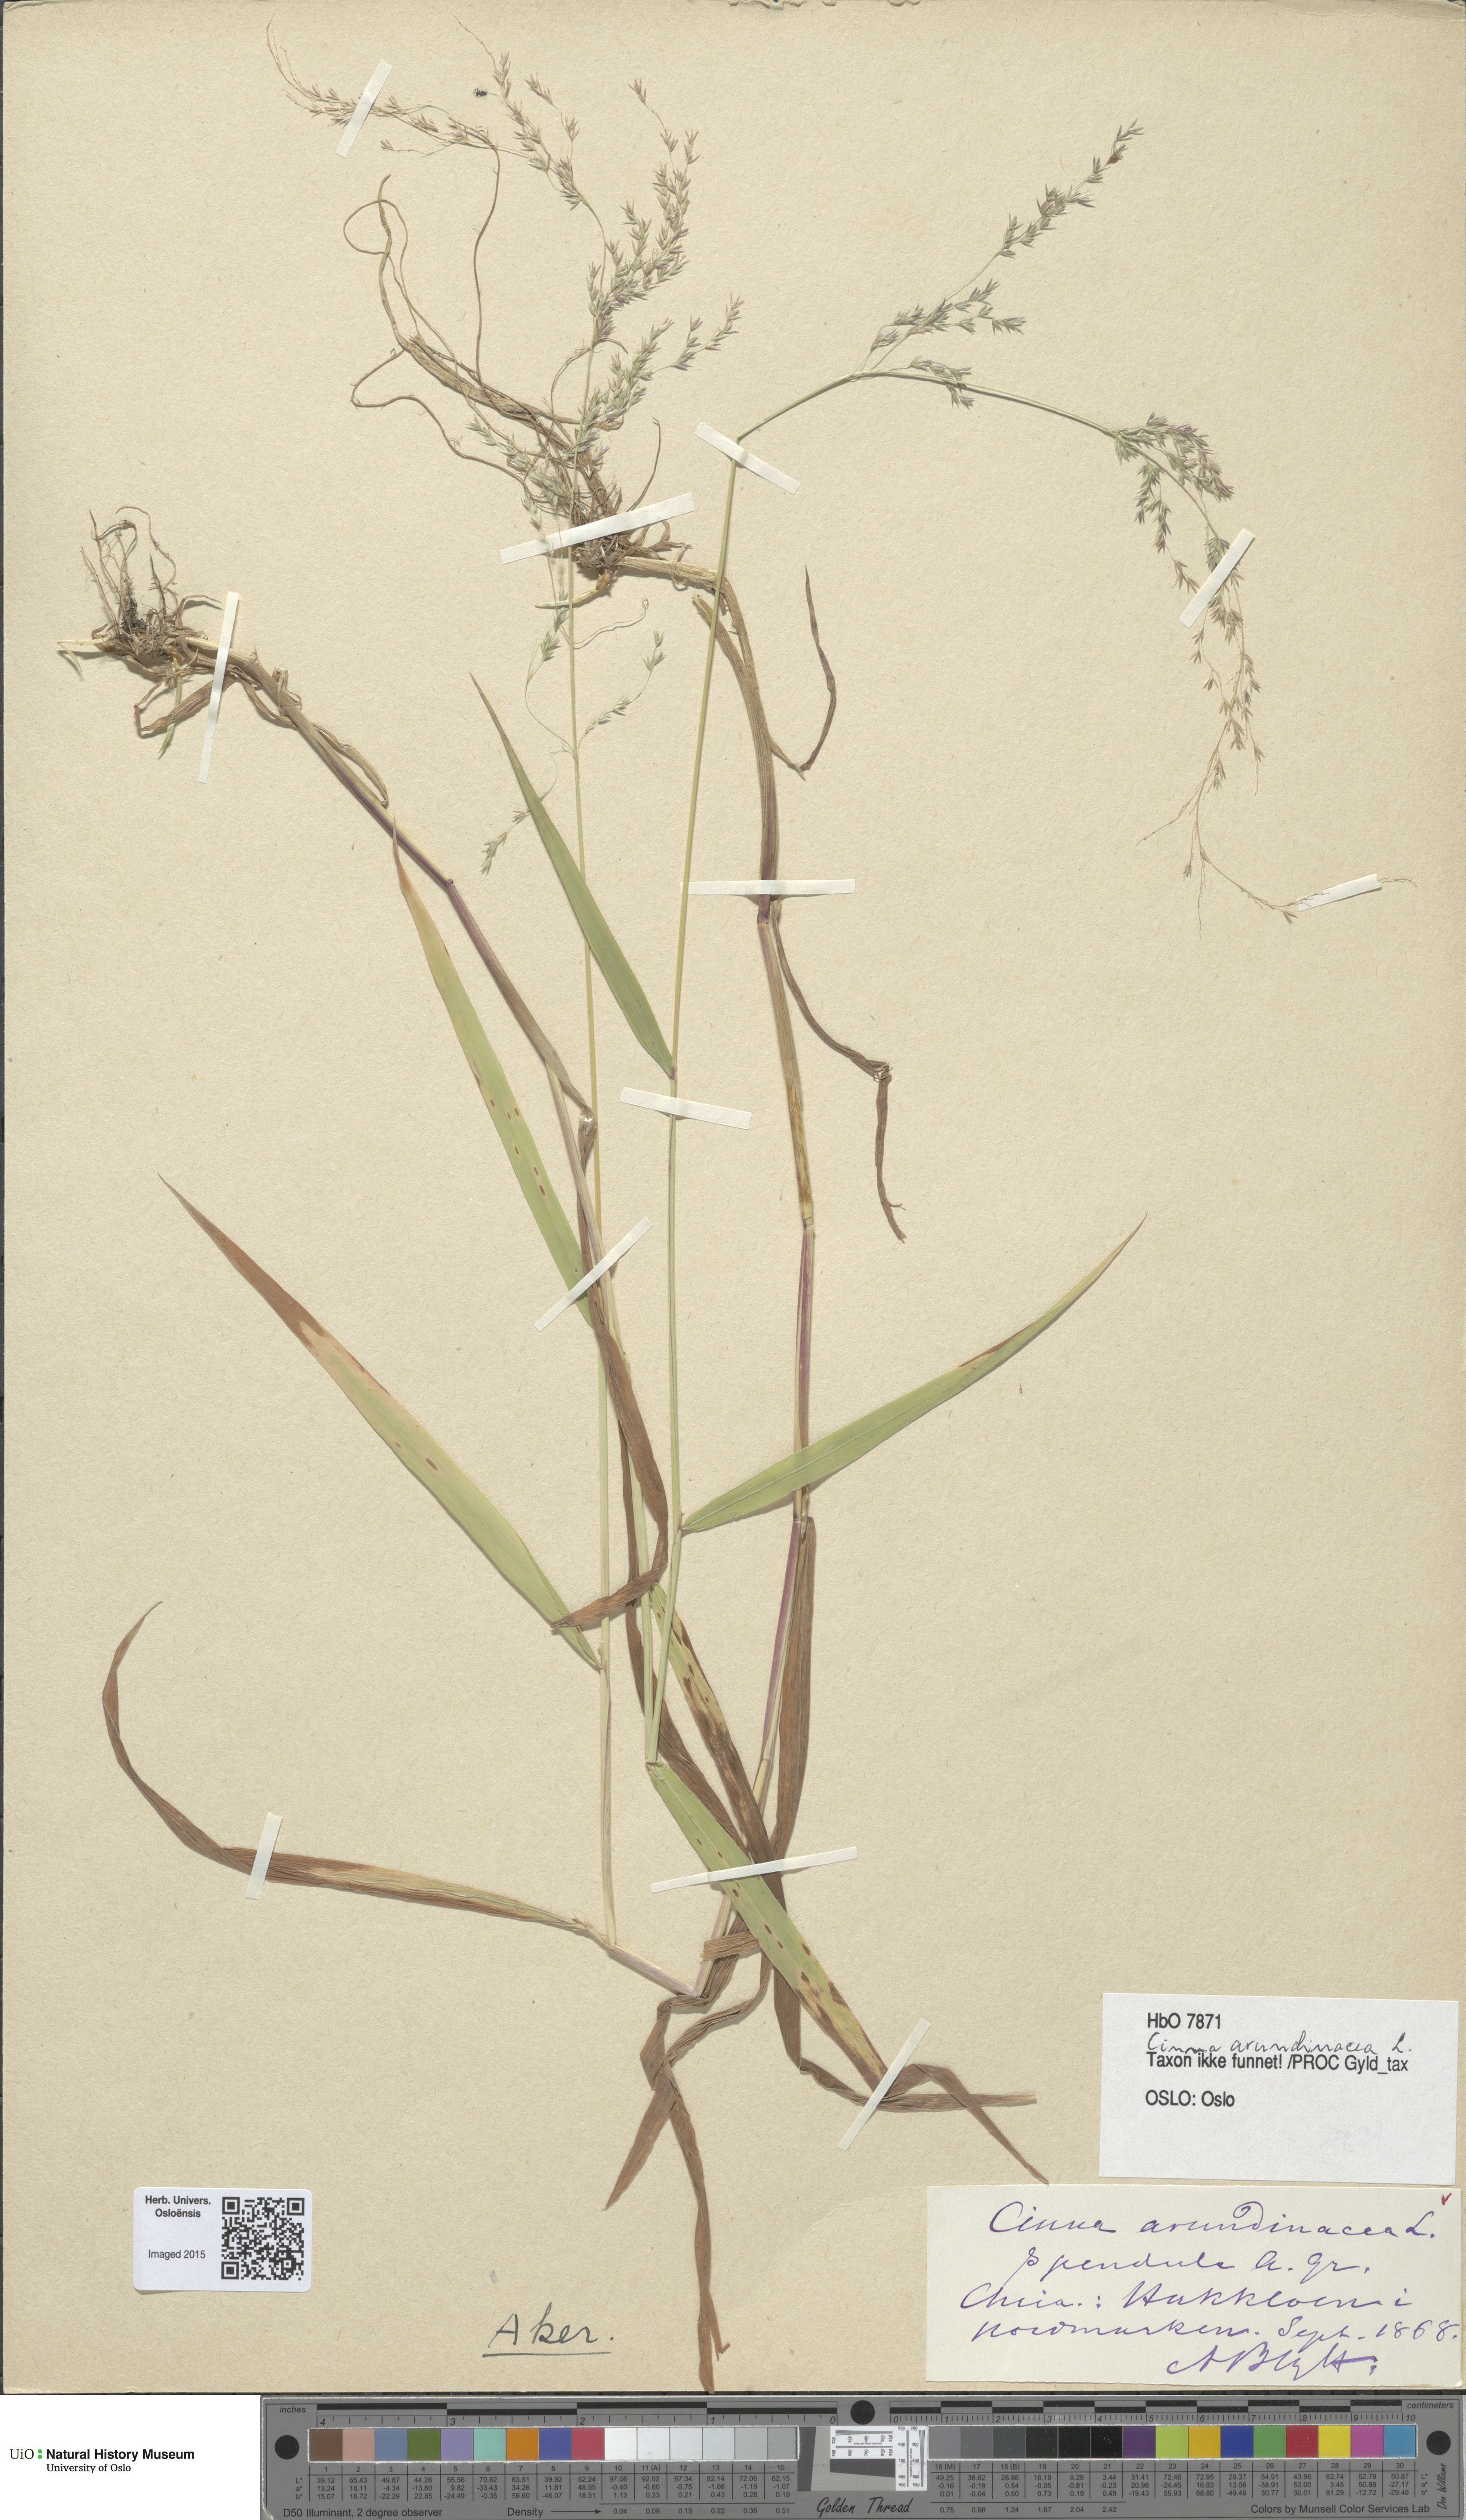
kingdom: Plantae
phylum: Tracheophyta
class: Liliopsida
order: Poales
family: Poaceae
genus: Cinna
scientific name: Cinna latifolia
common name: Drooping woodreed
